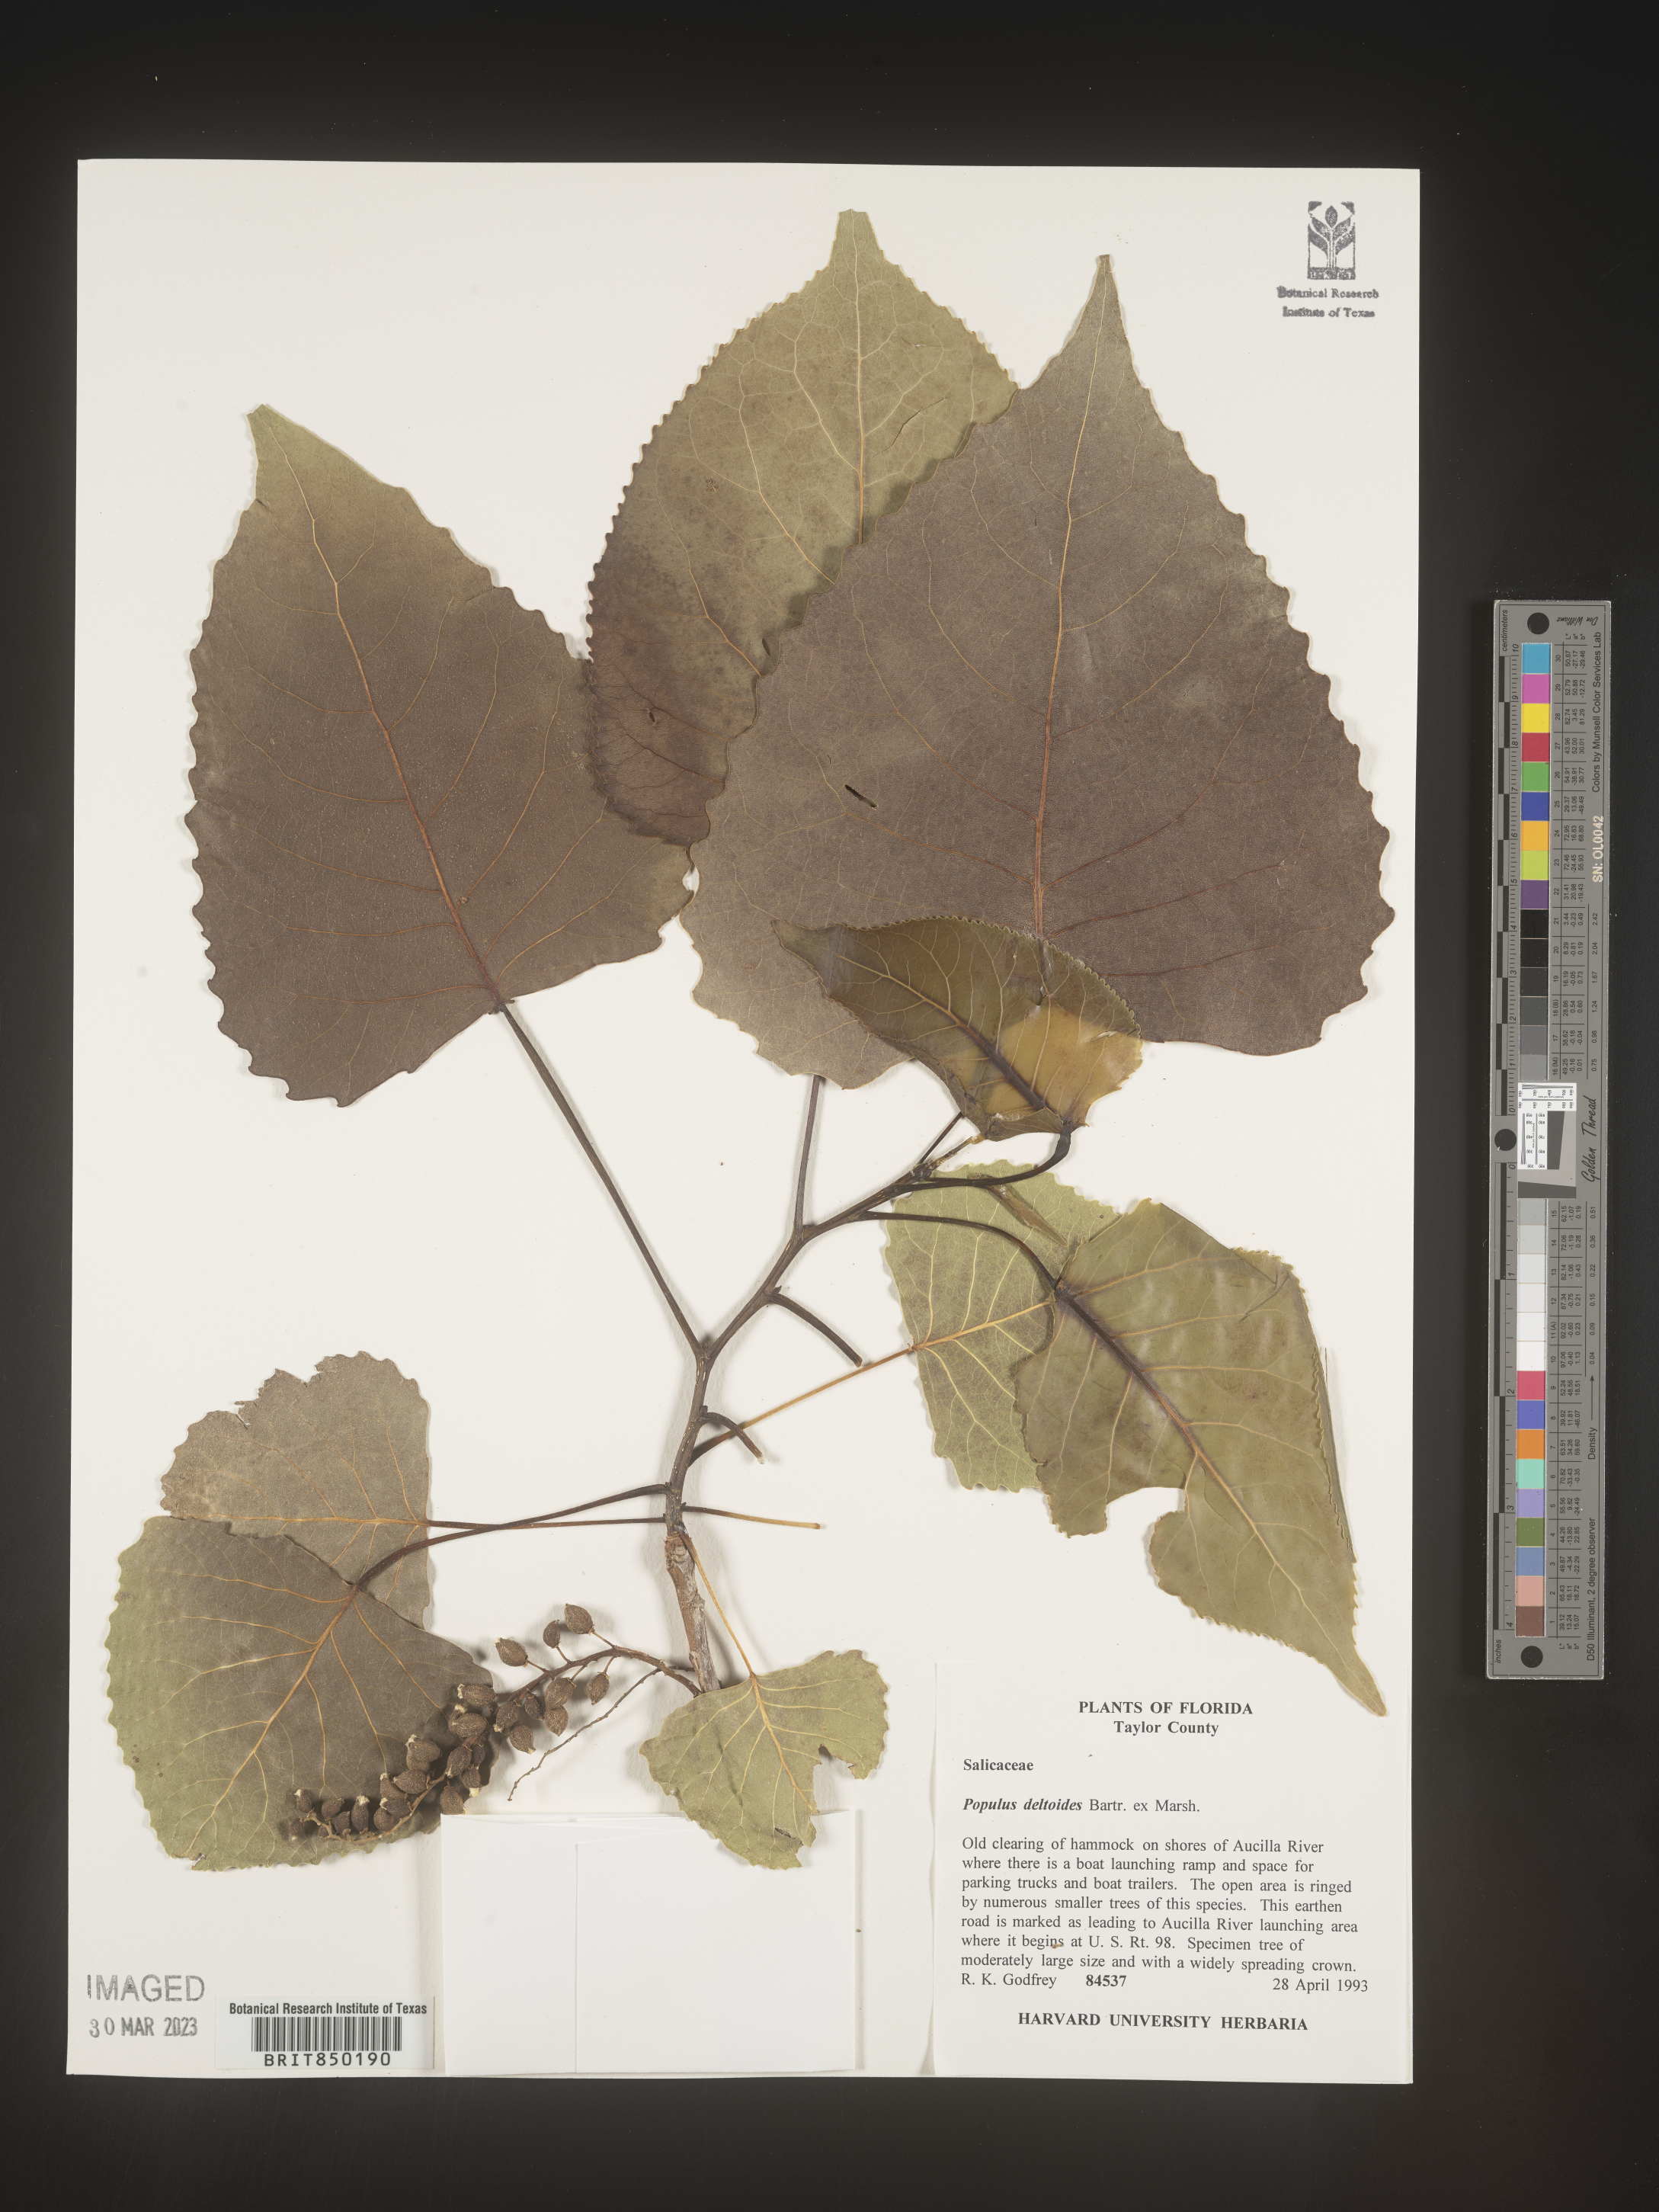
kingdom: Plantae
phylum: Tracheophyta
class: Magnoliopsida
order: Malpighiales
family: Salicaceae
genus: Populus
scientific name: Populus deltoides
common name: Eastern cottonwood
